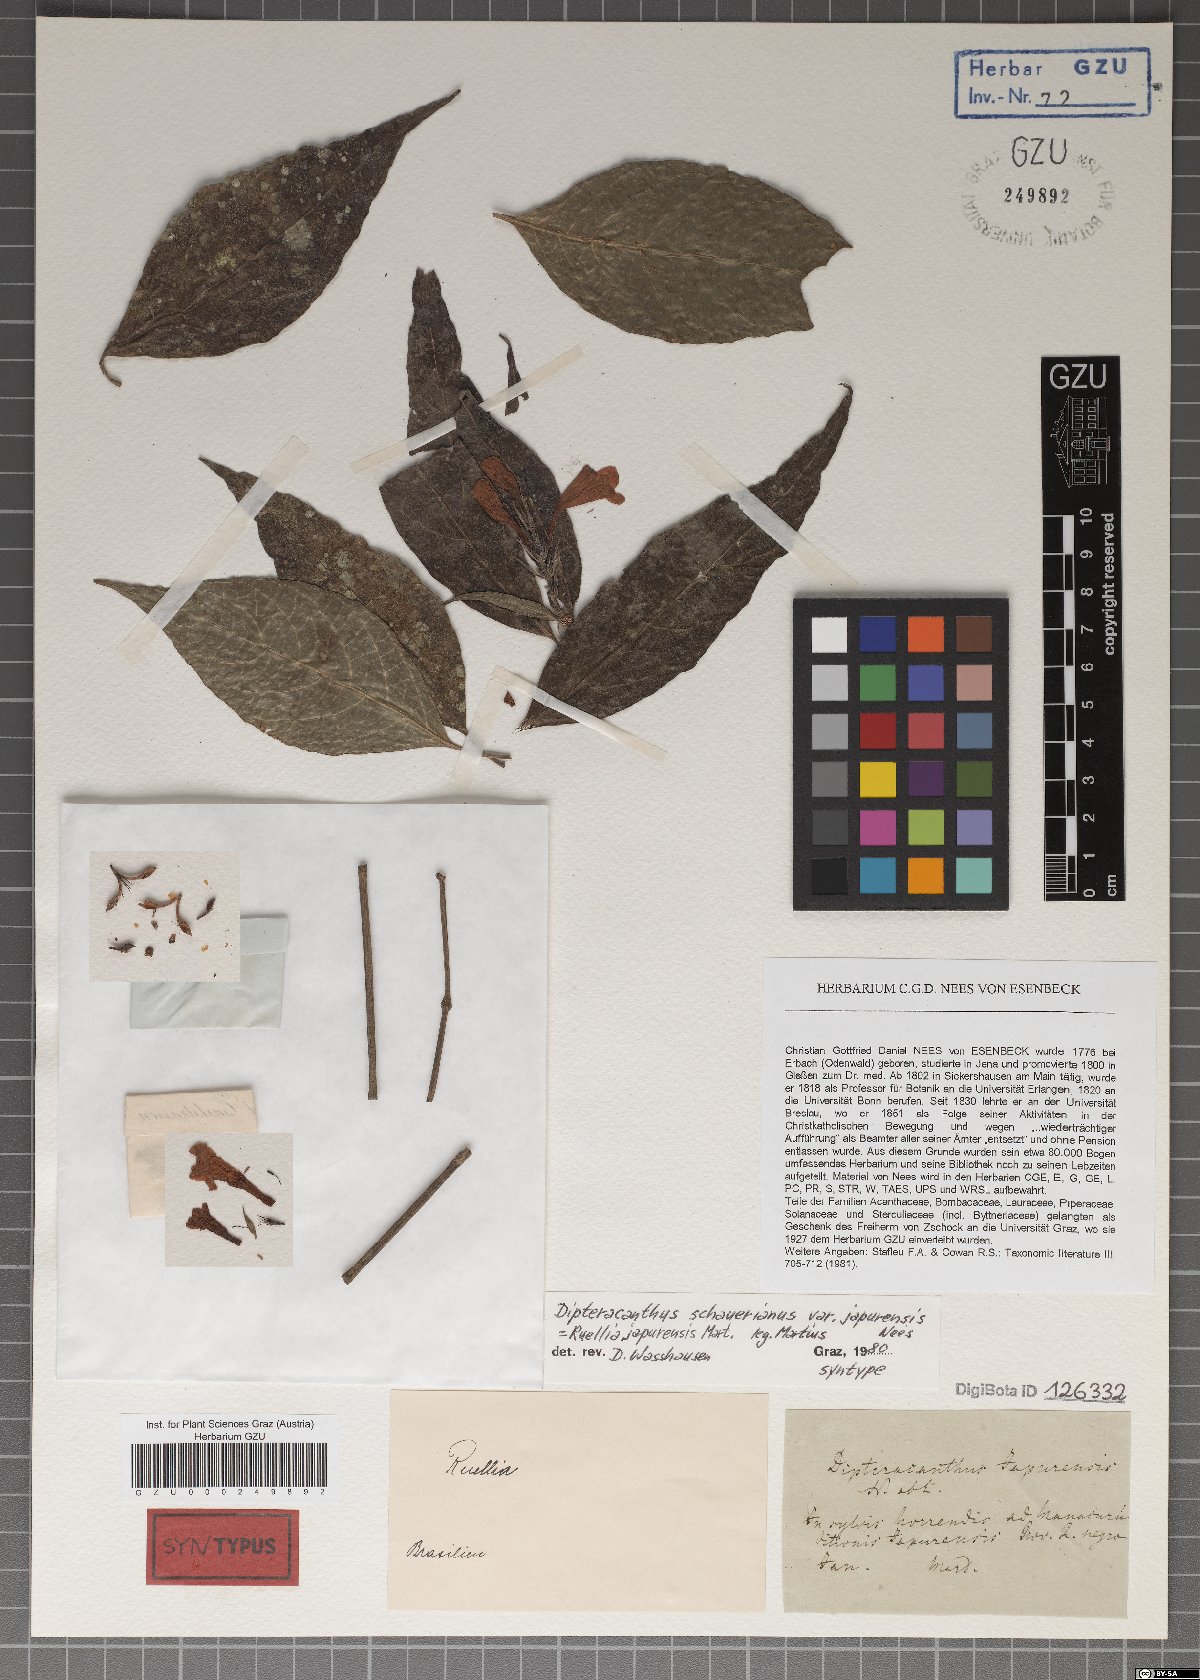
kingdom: Plantae
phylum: Tracheophyta
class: Magnoliopsida
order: Lamiales
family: Acanthaceae
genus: Ruellia
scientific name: Ruellia terminalis
